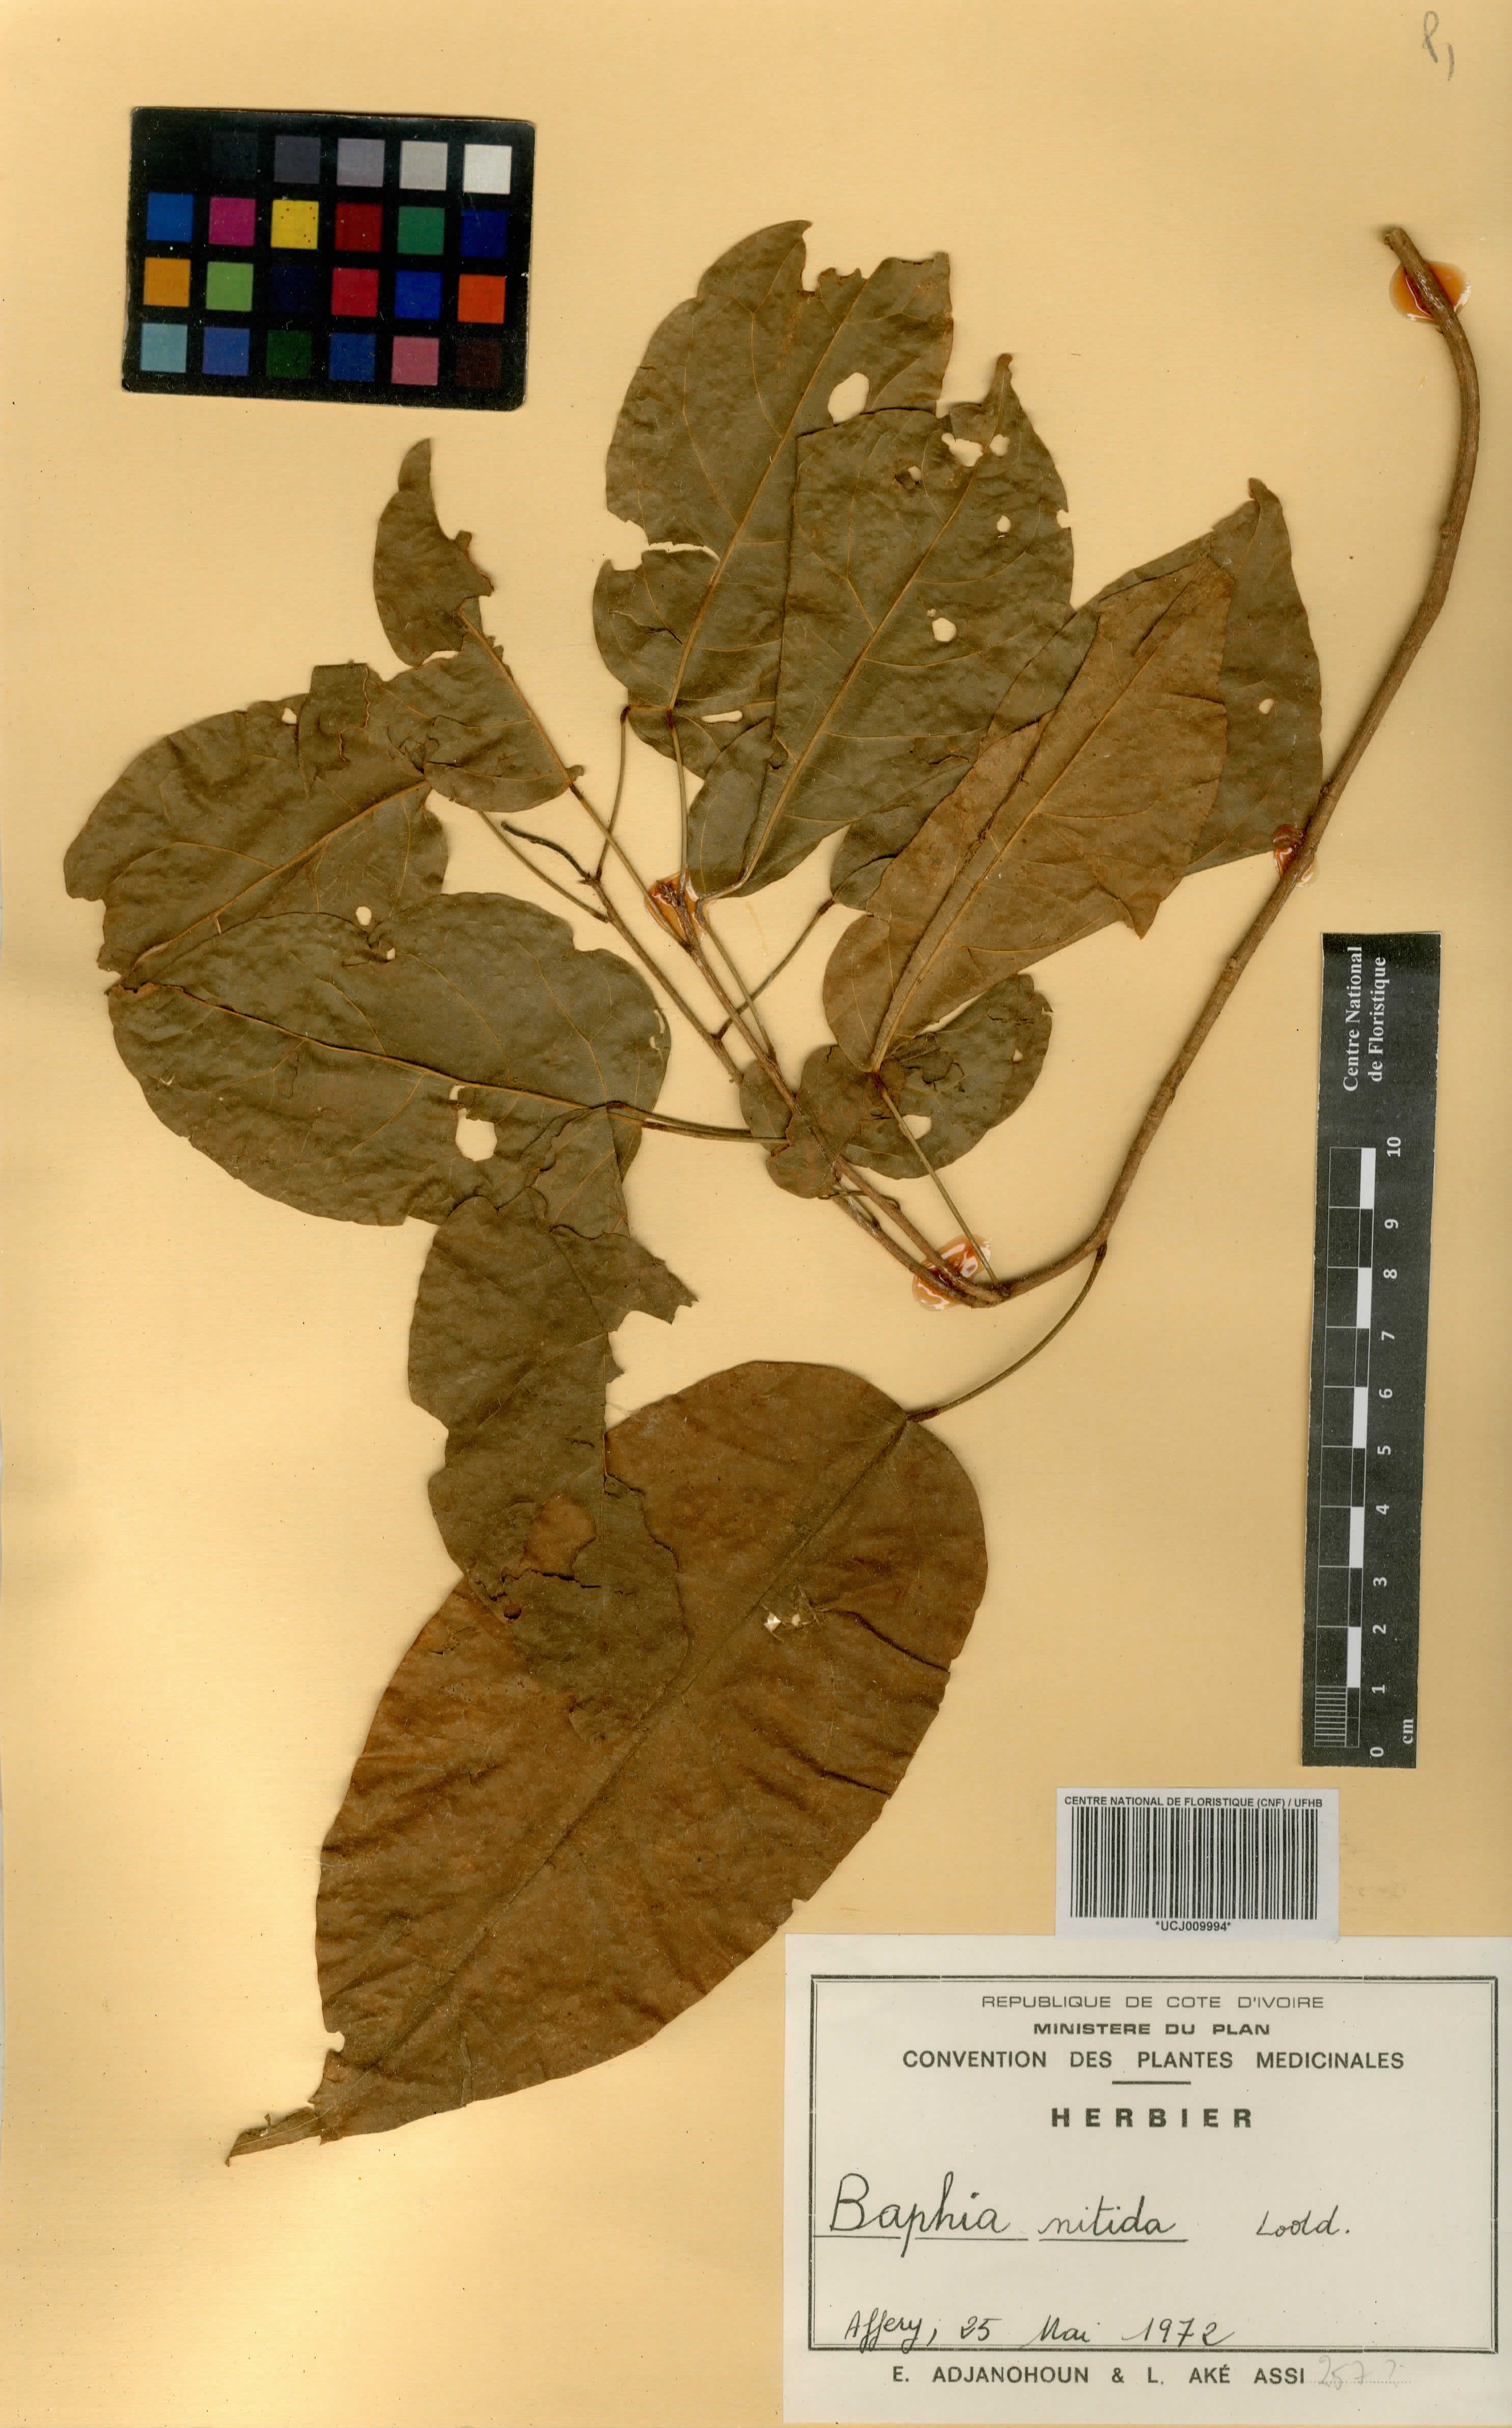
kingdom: Plantae
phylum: Tracheophyta
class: Magnoliopsida
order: Fabales
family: Fabaceae
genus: Baphia
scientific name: Baphia nitida
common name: Camwood
